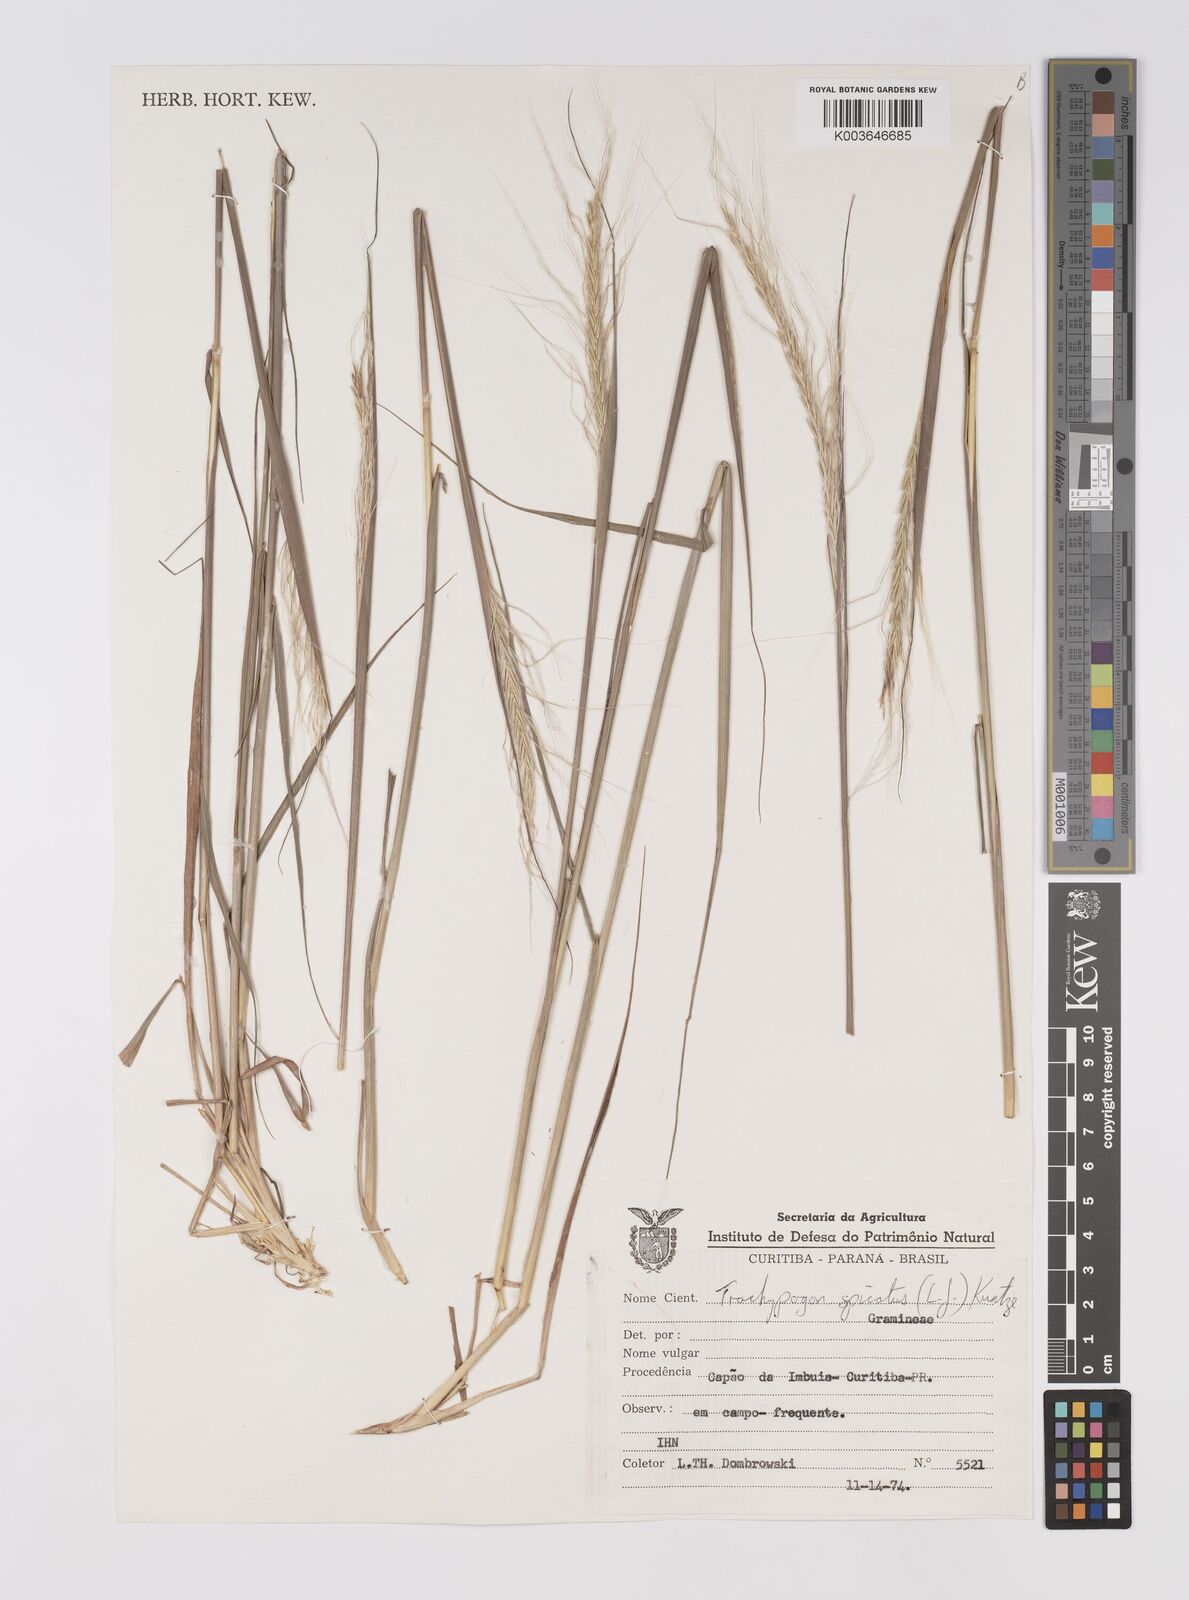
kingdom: Plantae
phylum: Tracheophyta
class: Liliopsida
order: Poales
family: Poaceae
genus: Trachypogon
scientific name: Trachypogon spicatus
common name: Crinkle-awn
